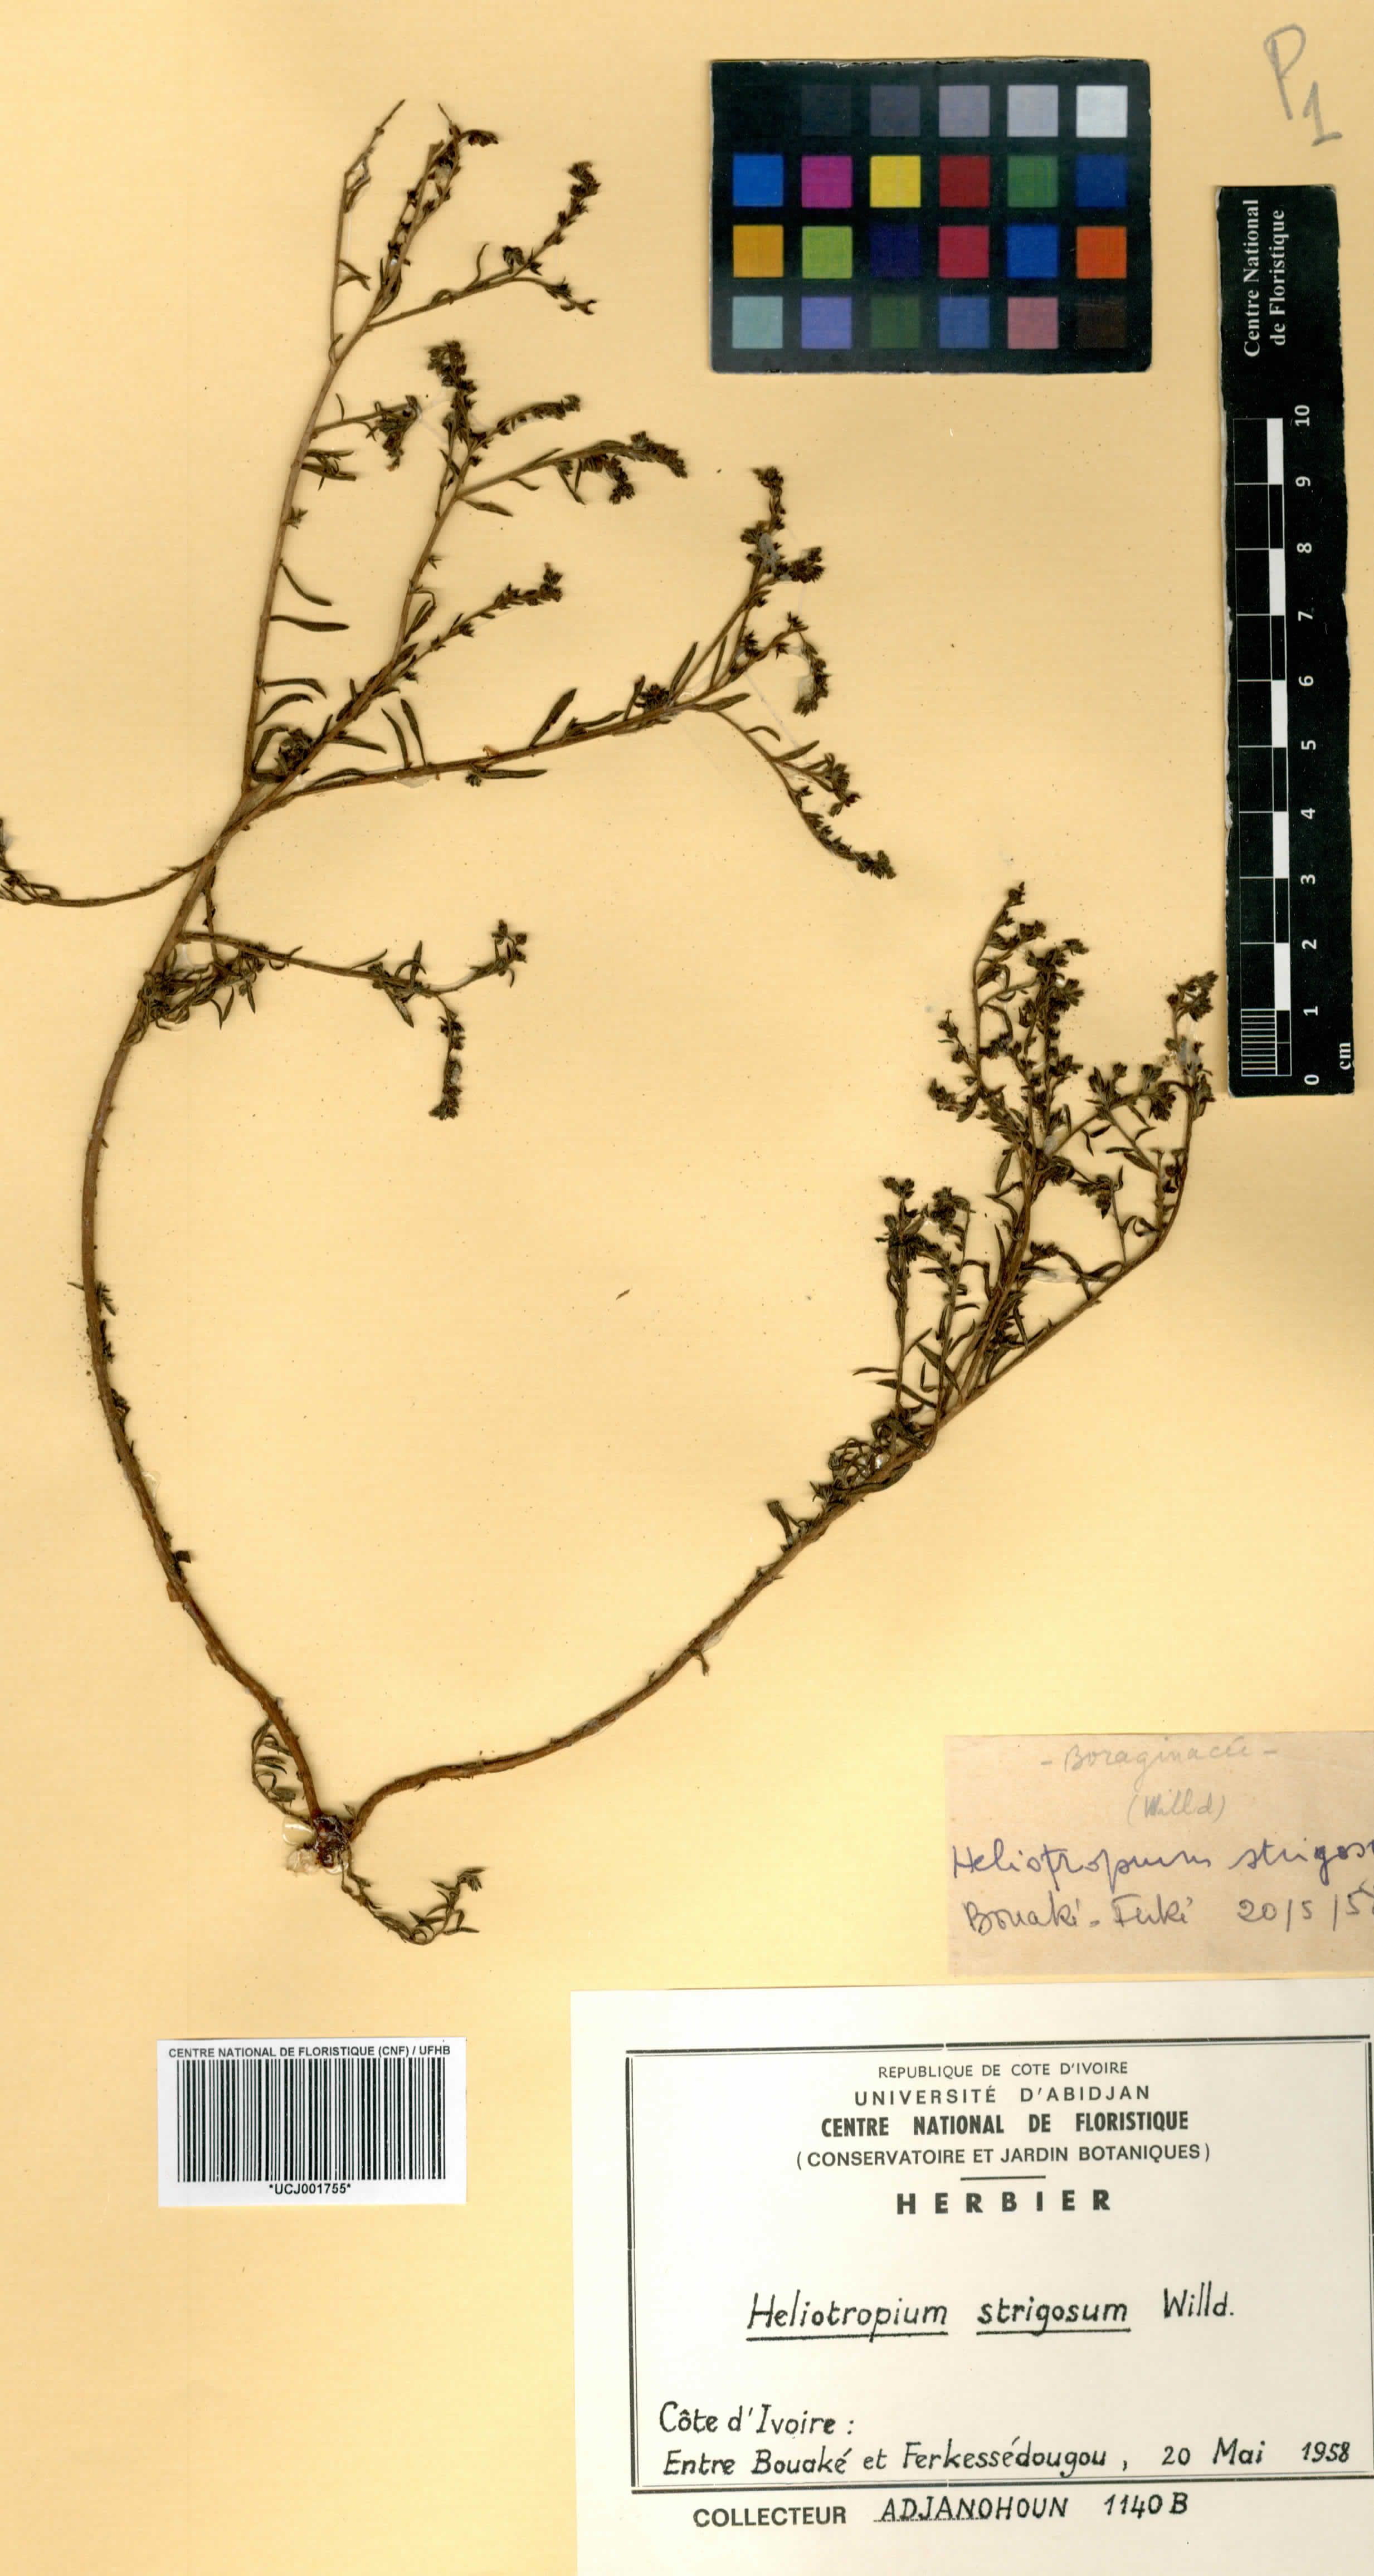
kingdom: Plantae
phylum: Tracheophyta
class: Magnoliopsida
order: Boraginales
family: Heliotropiaceae
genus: Euploca
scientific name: Euploca strigosa
